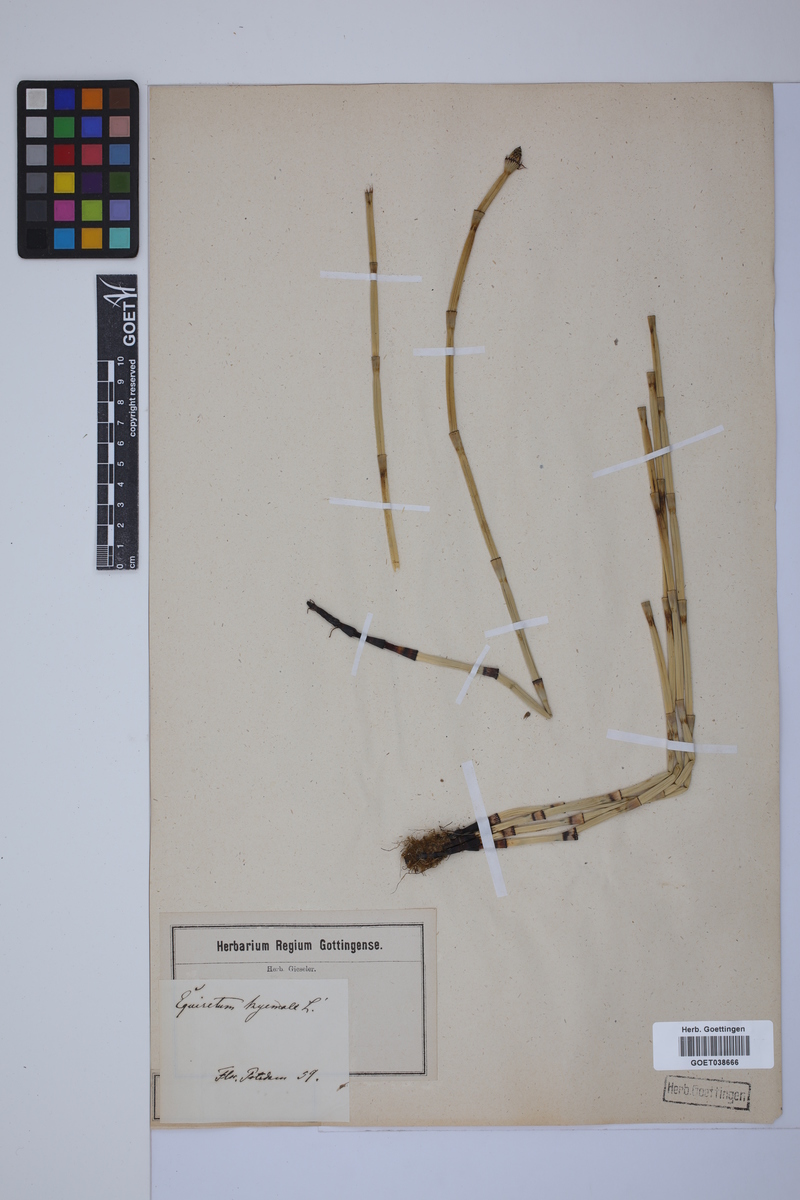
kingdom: Plantae
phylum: Tracheophyta
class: Polypodiopsida
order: Equisetales
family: Equisetaceae
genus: Equisetum
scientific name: Equisetum hyemale
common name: Rough horsetail
